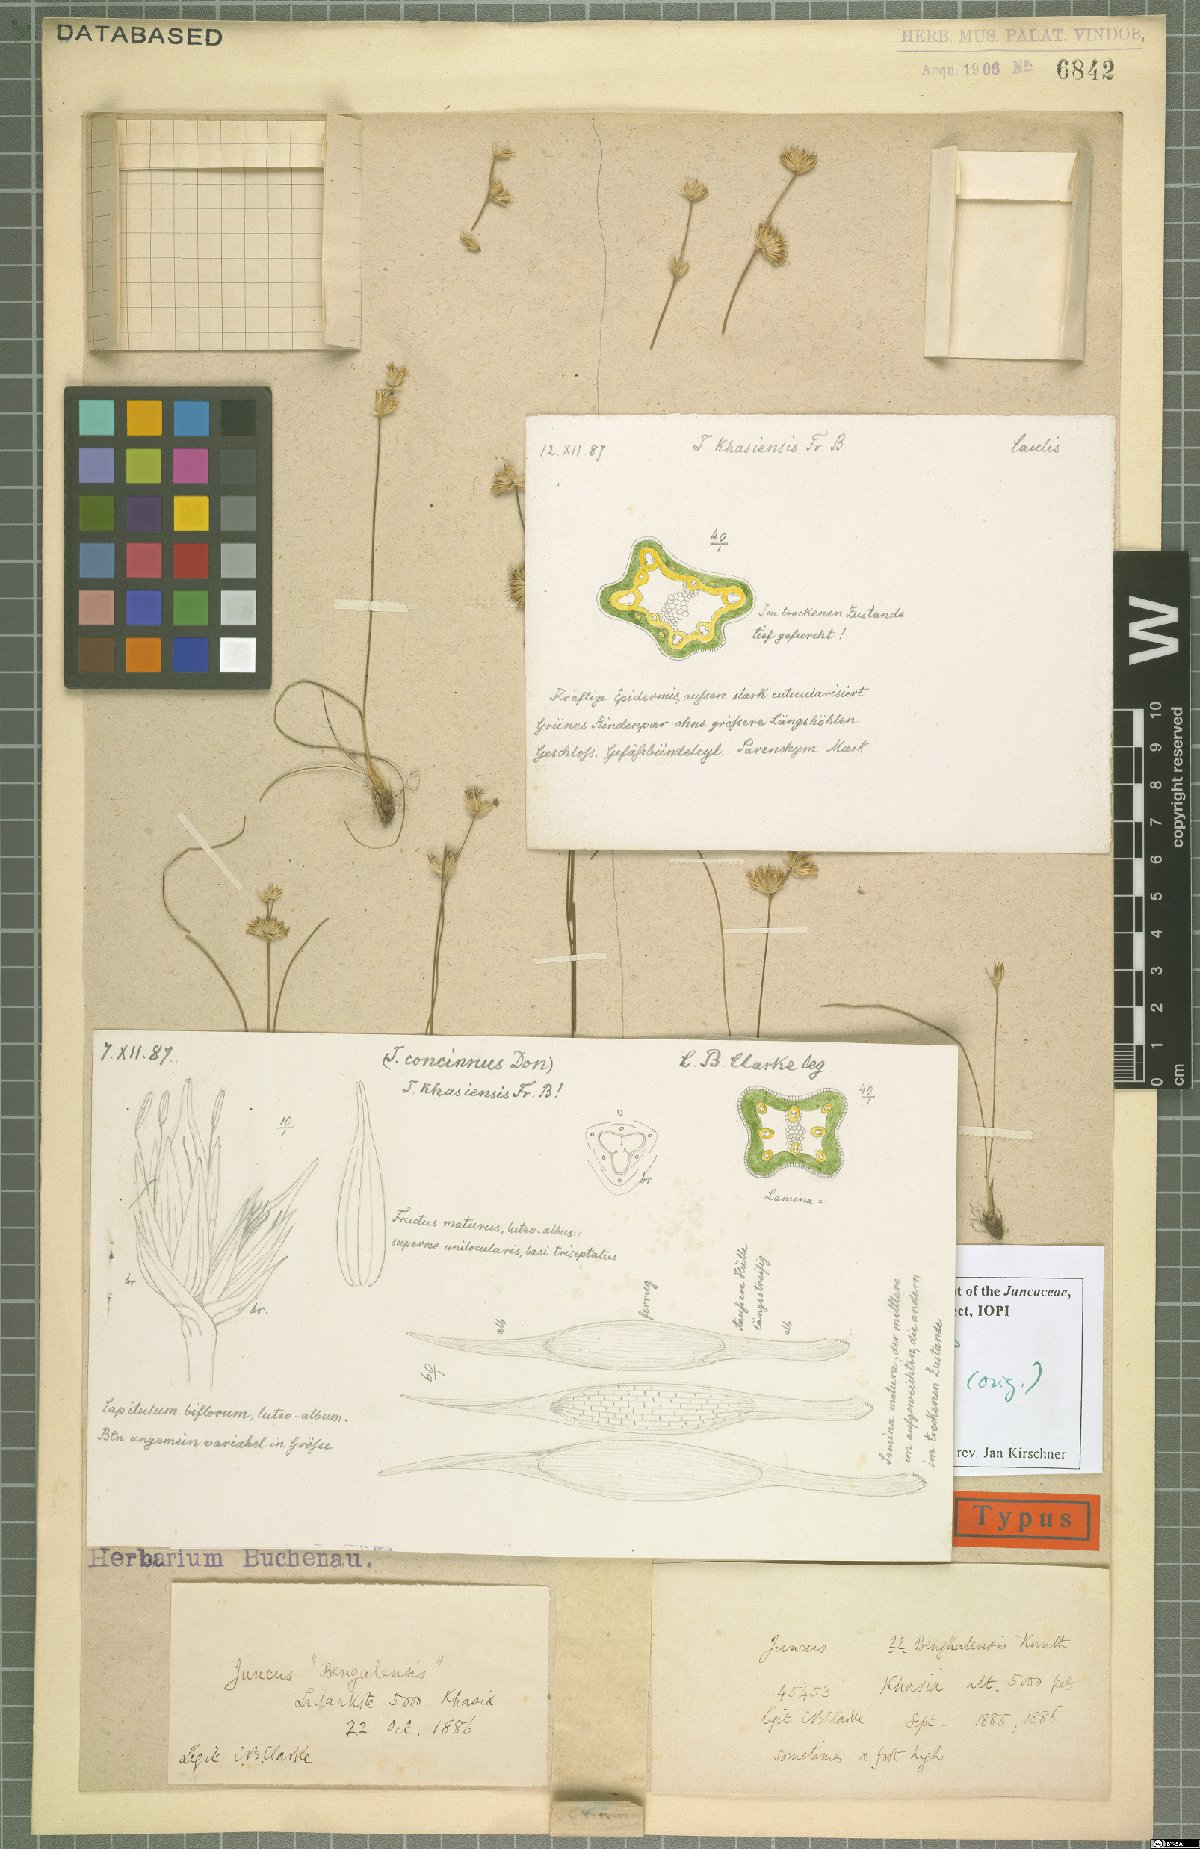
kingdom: Plantae
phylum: Tracheophyta
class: Liliopsida
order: Poales
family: Juncaceae
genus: Juncus
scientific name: Juncus khasiensis
